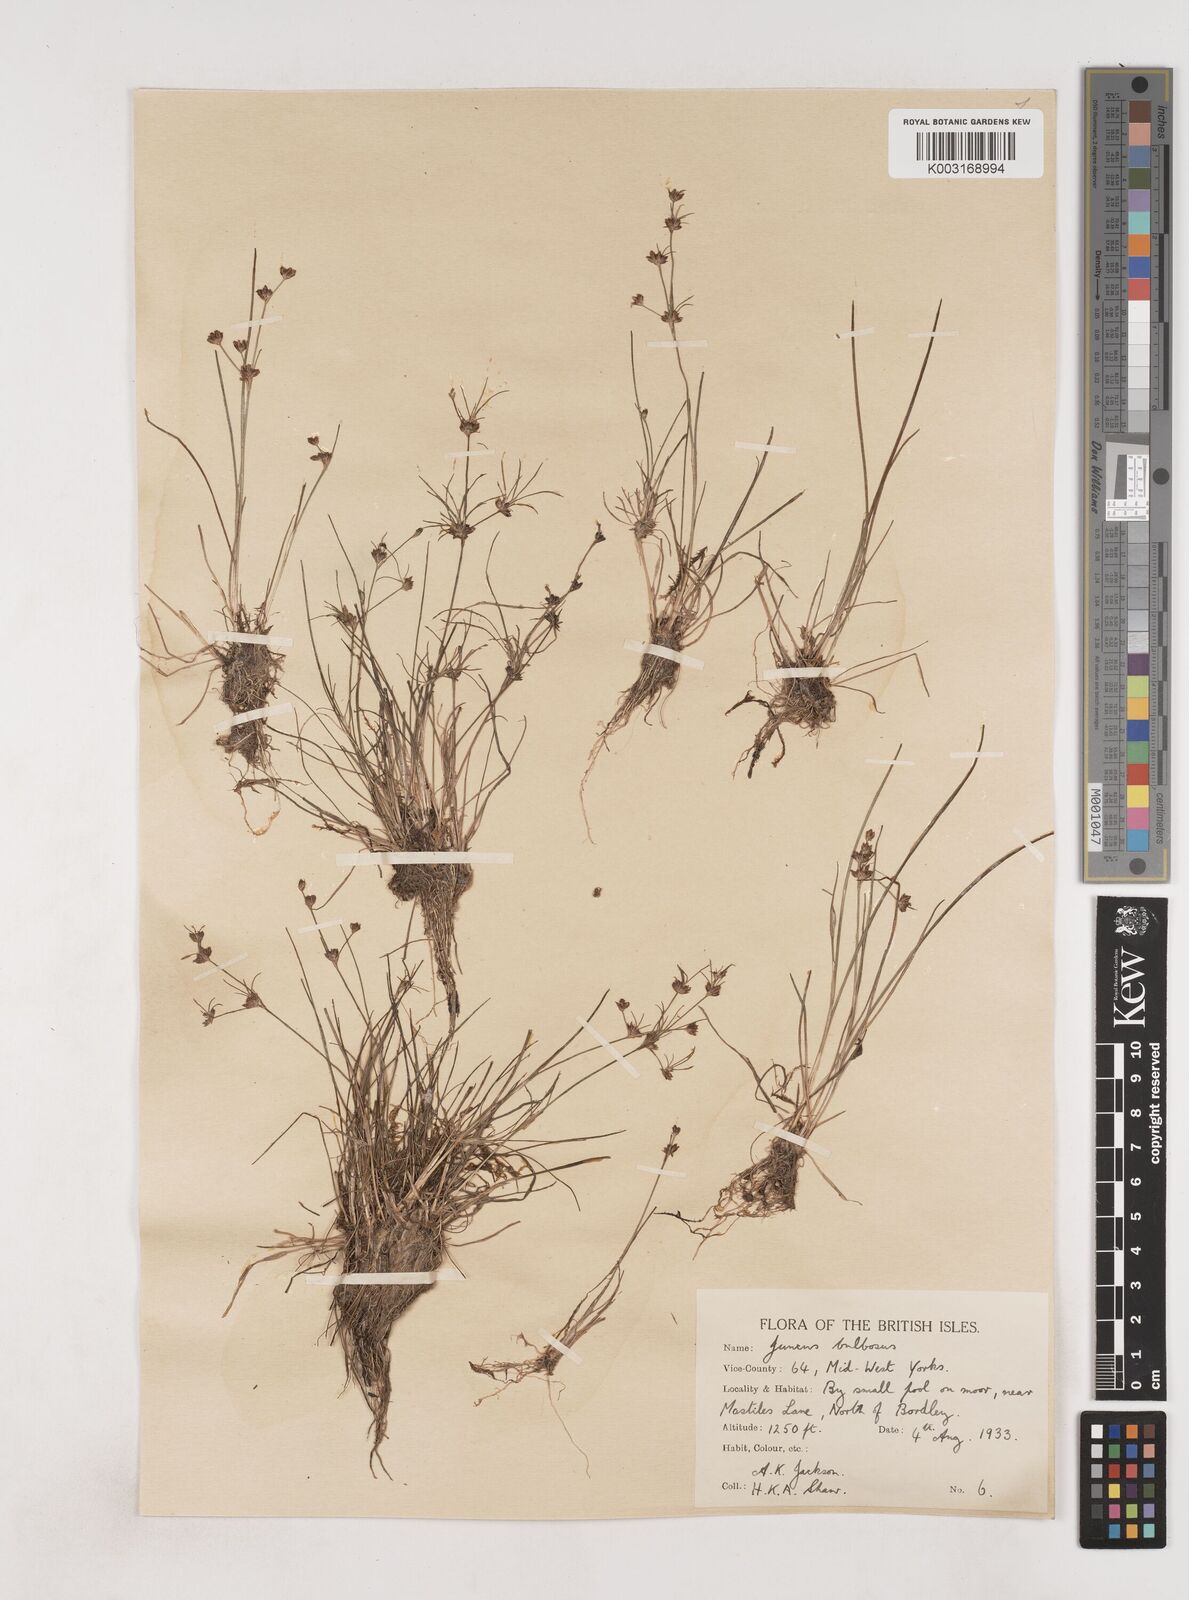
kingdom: Plantae
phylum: Tracheophyta
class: Liliopsida
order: Poales
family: Juncaceae
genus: Juncus
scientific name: Juncus bulbosus
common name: Bulbous rush
